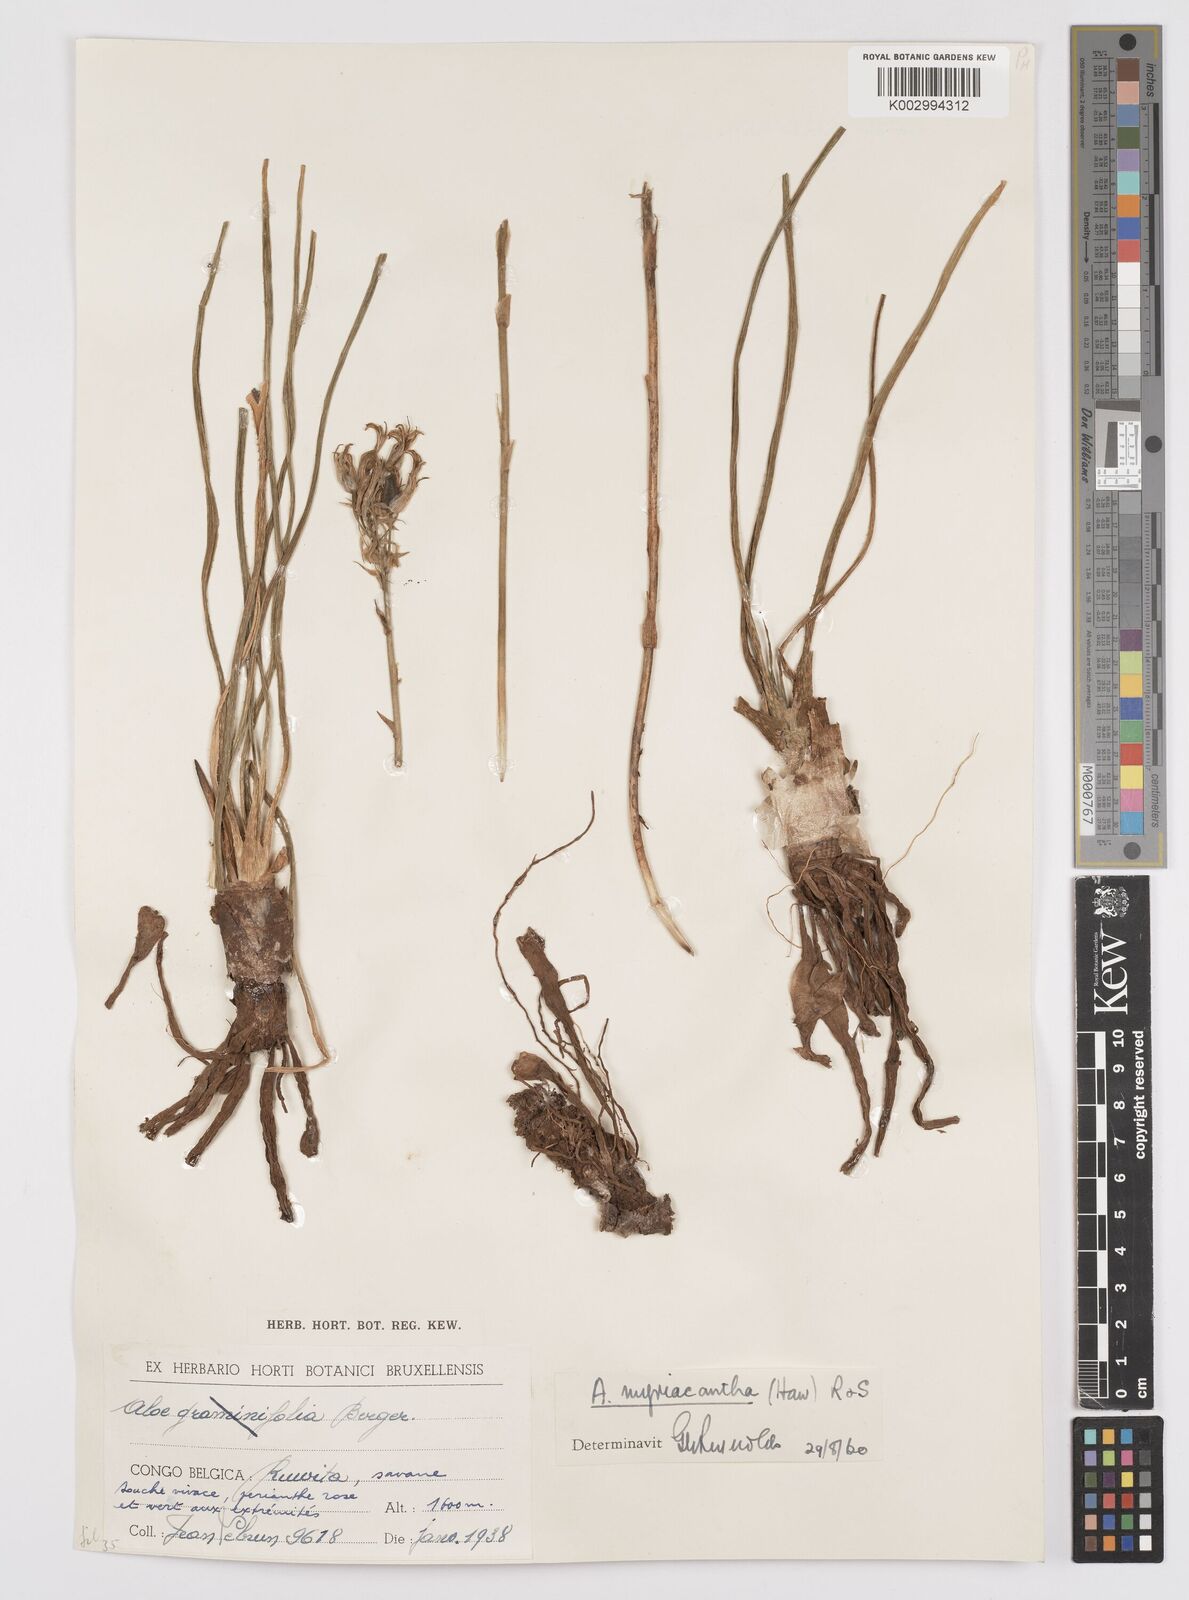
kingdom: Plantae
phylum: Tracheophyta
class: Liliopsida
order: Asparagales
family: Asphodelaceae
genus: Aloe
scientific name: Aloe myriacantha
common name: Grass aloe
